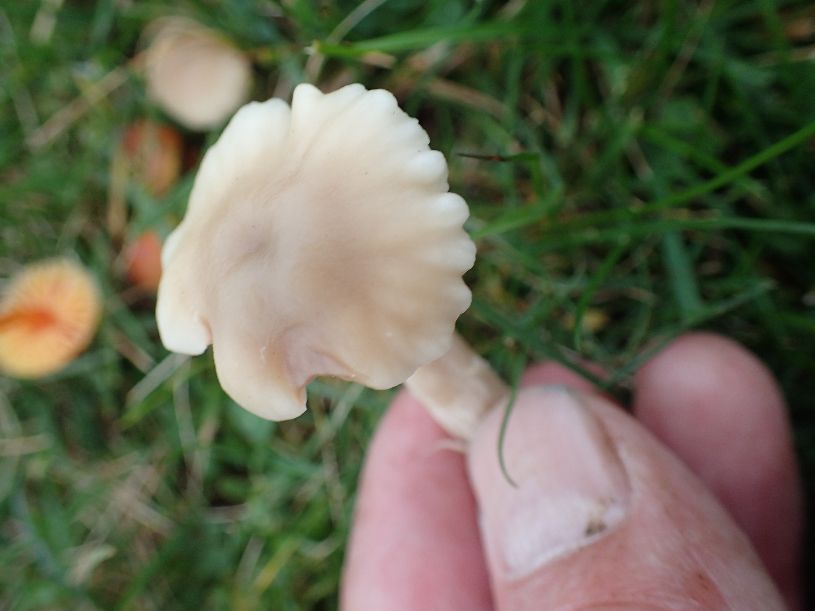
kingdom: Fungi
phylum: Basidiomycota
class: Agaricomycetes
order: Agaricales
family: Hygrophoraceae
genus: Cuphophyllus
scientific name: Cuphophyllus virgineus
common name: isabella-vokshat
